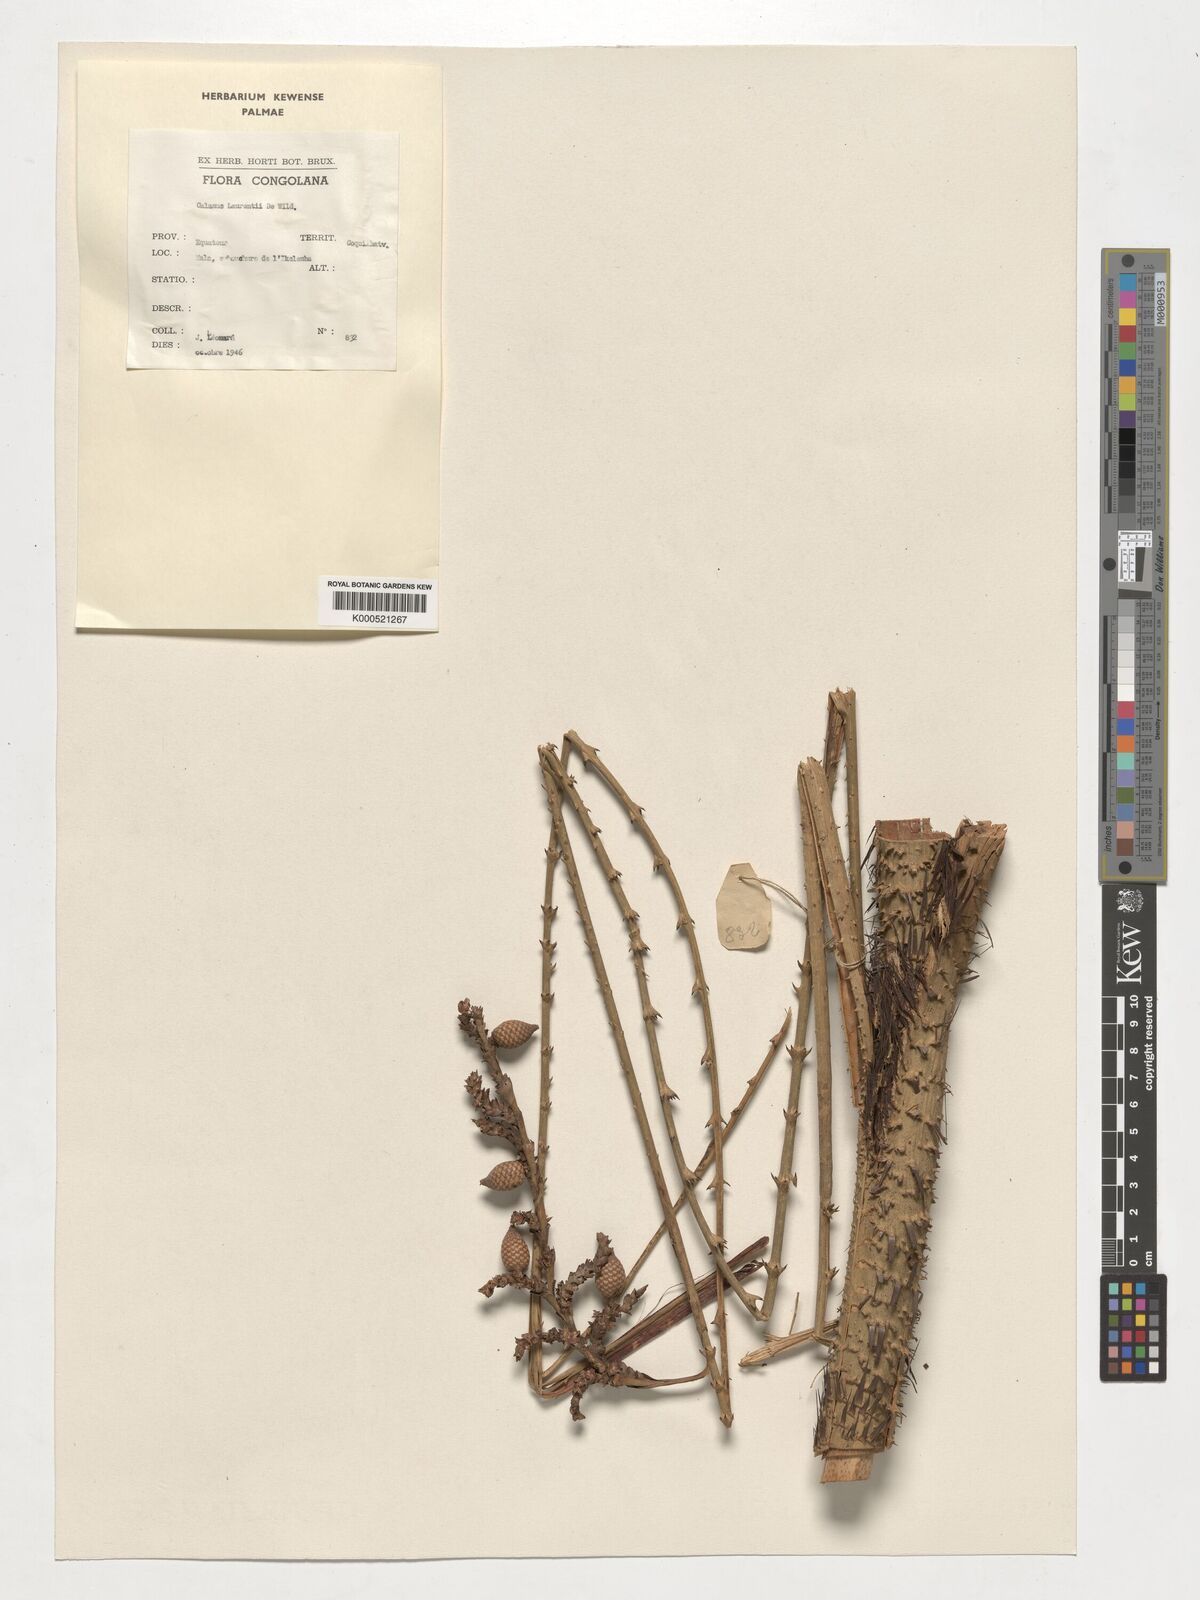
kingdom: Plantae
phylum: Tracheophyta
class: Liliopsida
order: Arecales
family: Arecaceae
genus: Calamus
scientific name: Calamus deerratus
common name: Rattan
